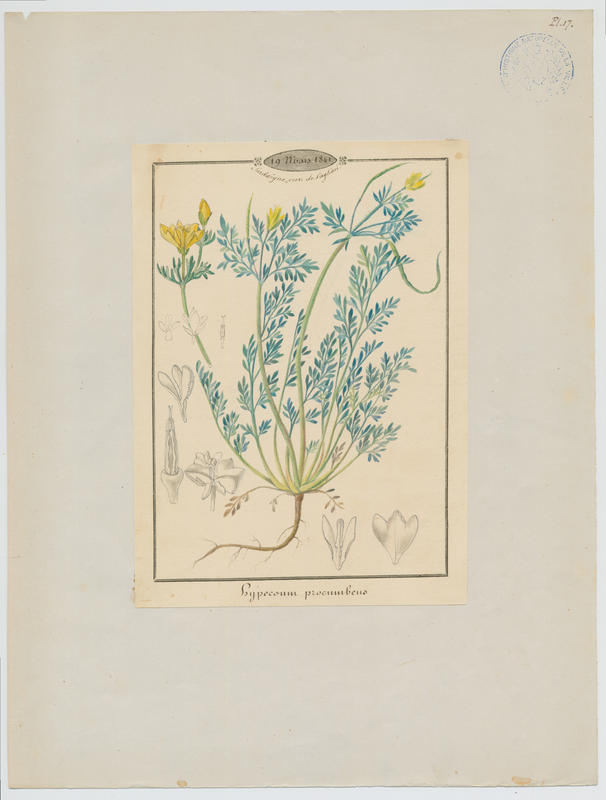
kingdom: Plantae
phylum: Tracheophyta
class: Magnoliopsida
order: Ranunculales
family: Papaveraceae
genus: Hypecoum
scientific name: Hypecoum procumbens
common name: Procumbent hypecoum
